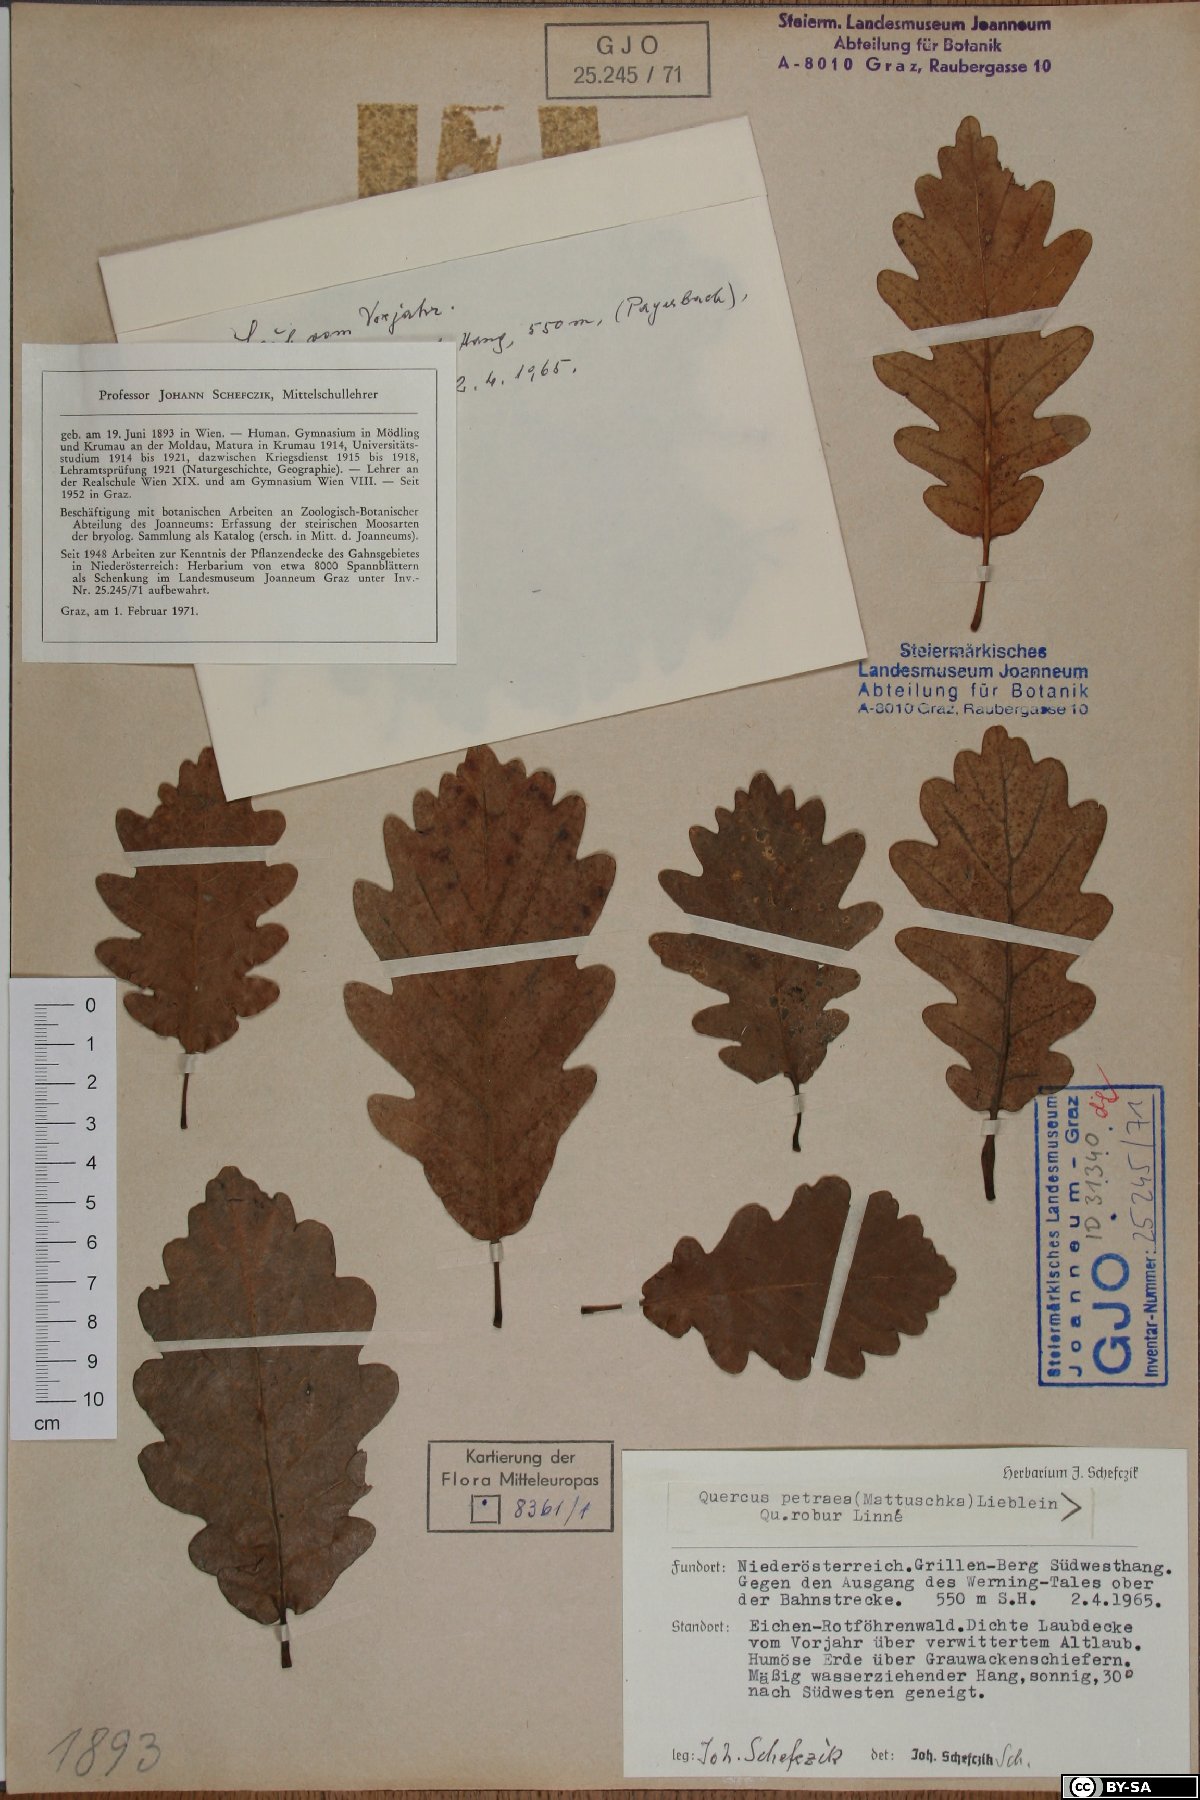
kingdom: Plantae
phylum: Tracheophyta
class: Magnoliopsida
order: Fagales
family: Fagaceae
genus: Quercus
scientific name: Quercus petraea
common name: Sessile oak
